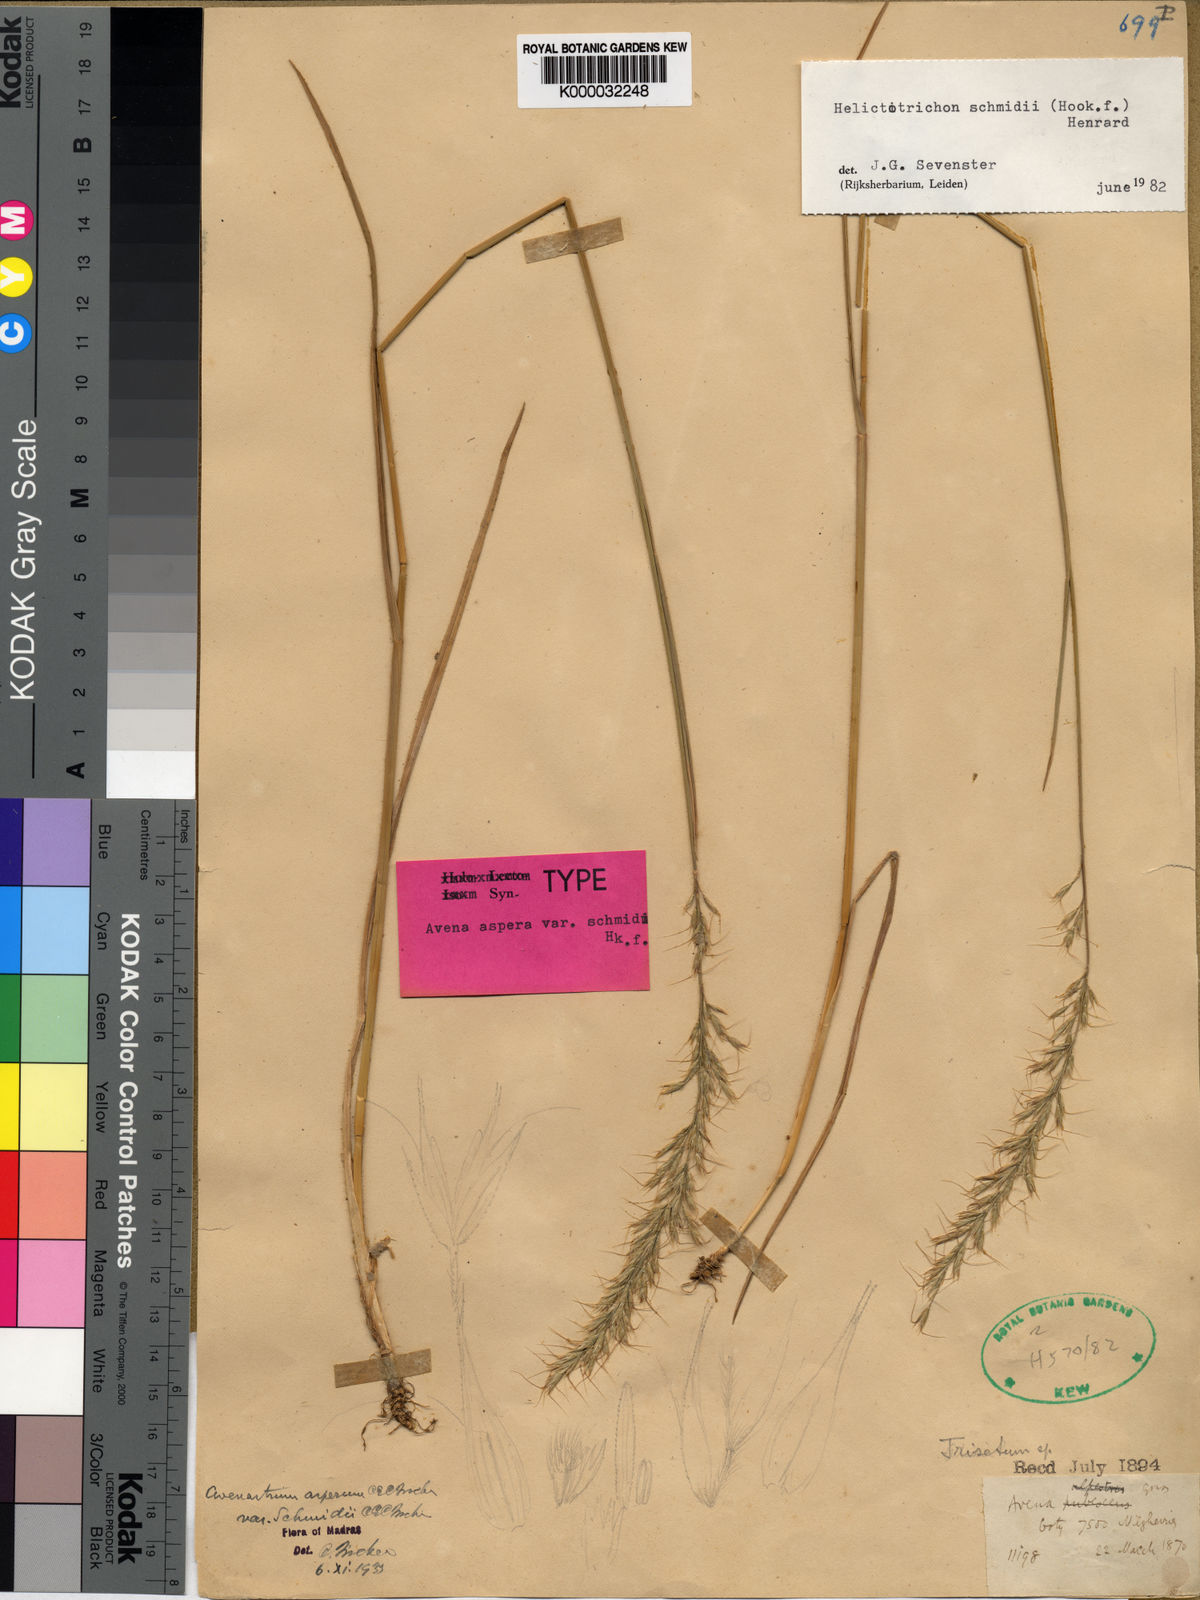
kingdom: Plantae
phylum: Tracheophyta
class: Liliopsida
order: Poales
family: Poaceae
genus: Helictotrichon
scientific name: Helictotrichon
